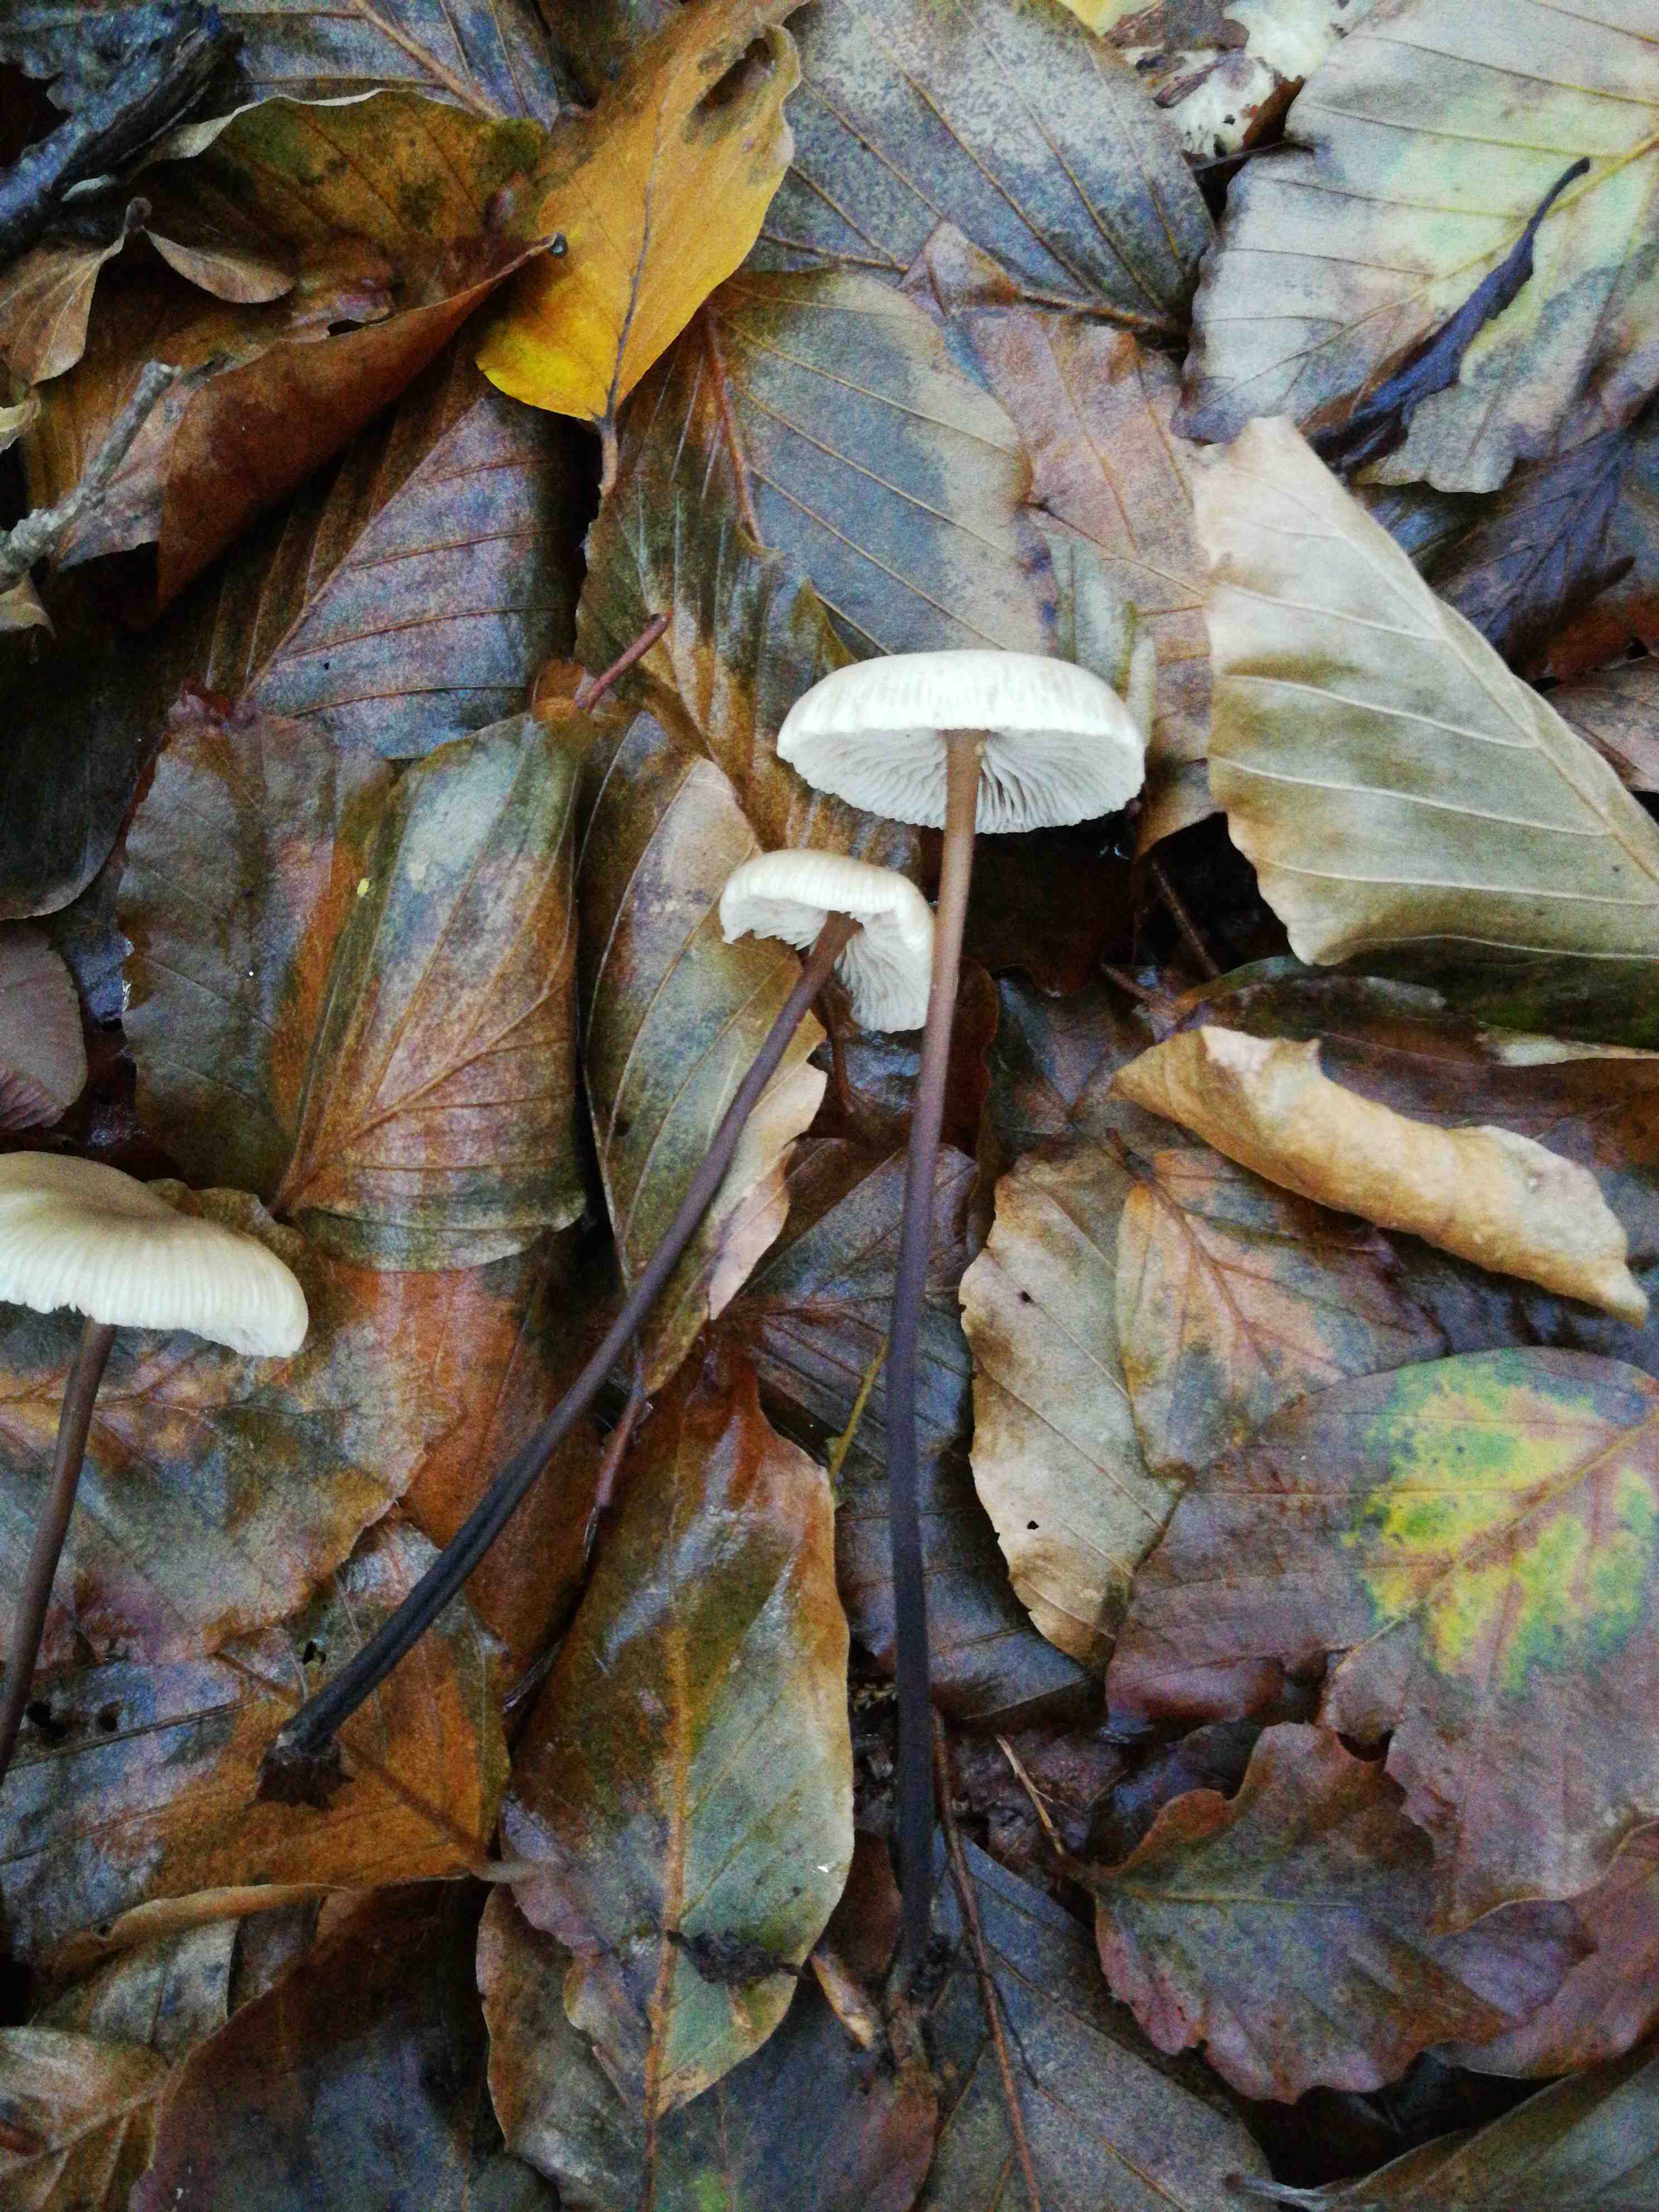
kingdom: Fungi
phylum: Basidiomycota
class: Agaricomycetes
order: Agaricales
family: Omphalotaceae
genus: Mycetinis
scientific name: Mycetinis alliaceus
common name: stor løghat
